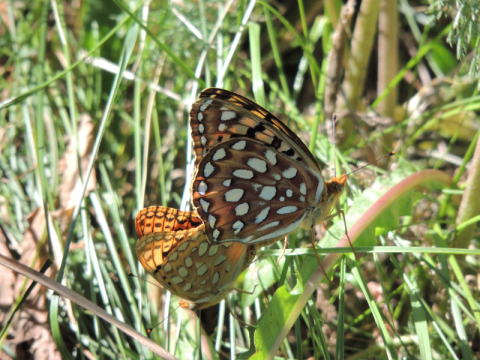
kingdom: Animalia
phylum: Arthropoda
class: Insecta
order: Lepidoptera
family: Nymphalidae
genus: Speyeria
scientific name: Speyeria coronis
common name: Coronis Fritillary
